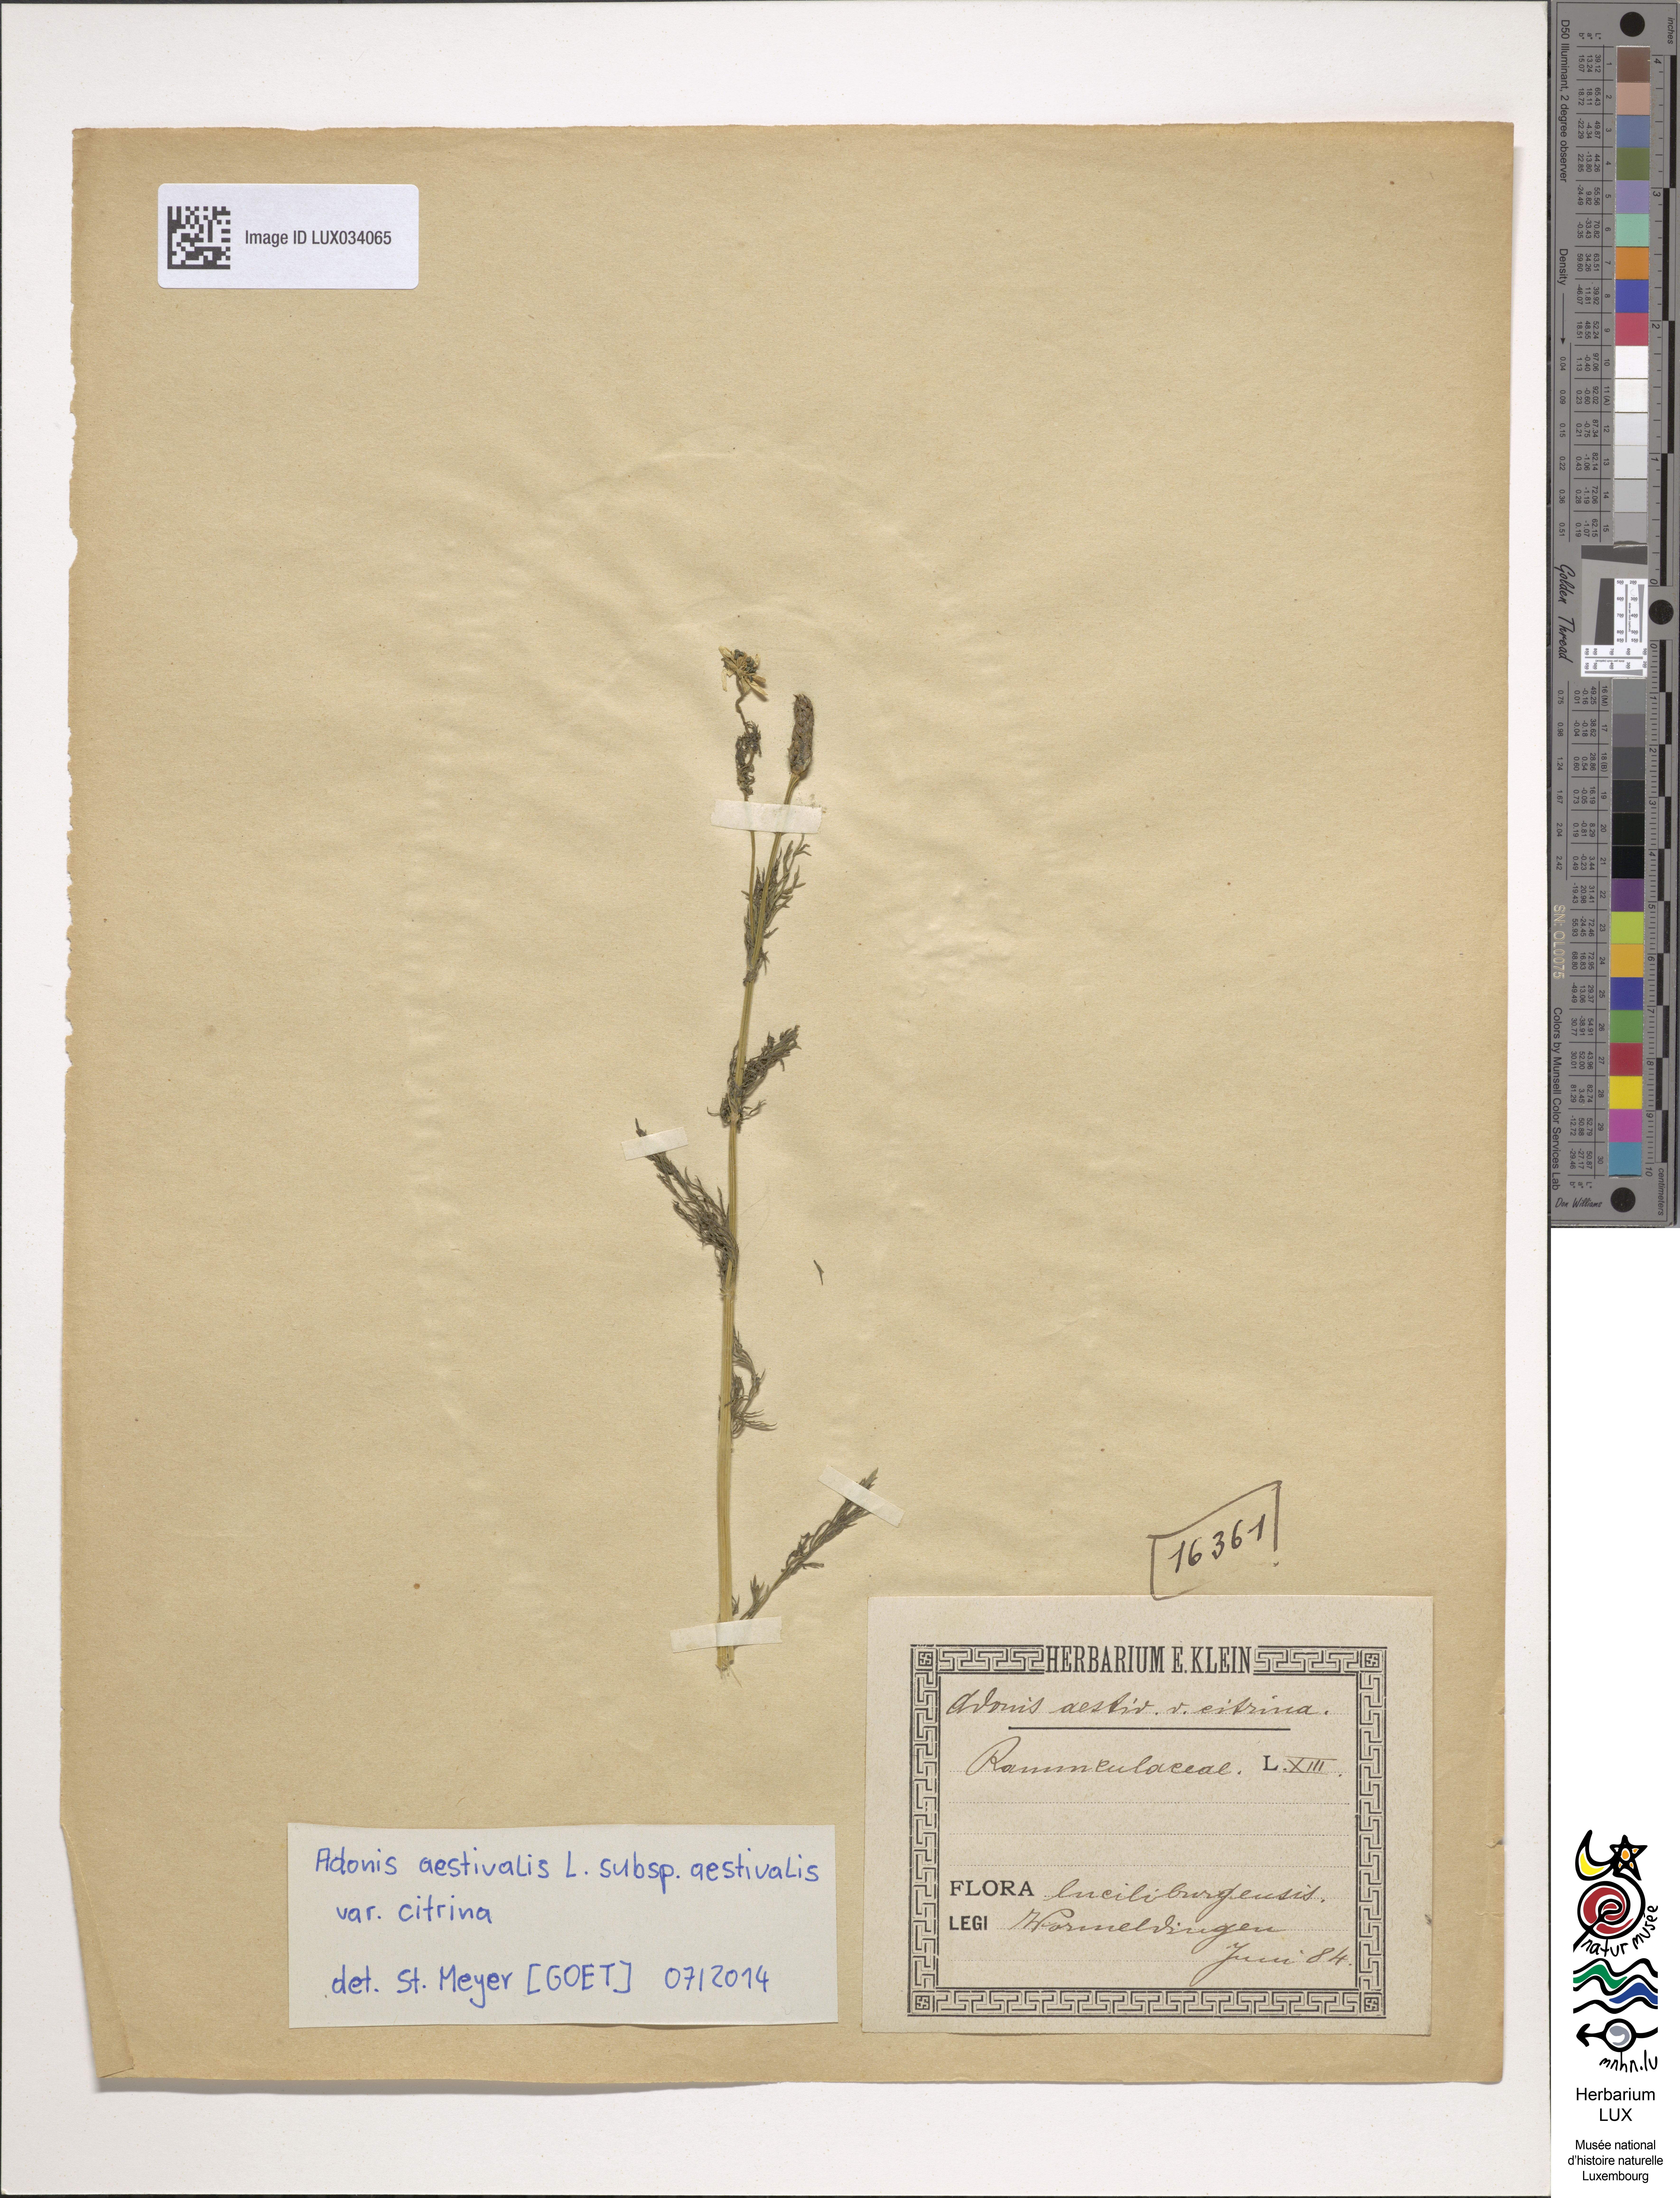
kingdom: Plantae
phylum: Tracheophyta
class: Magnoliopsida
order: Ranunculales
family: Ranunculaceae
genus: Adonis
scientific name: Adonis aestivalis
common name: Summer pheasant's-eye
